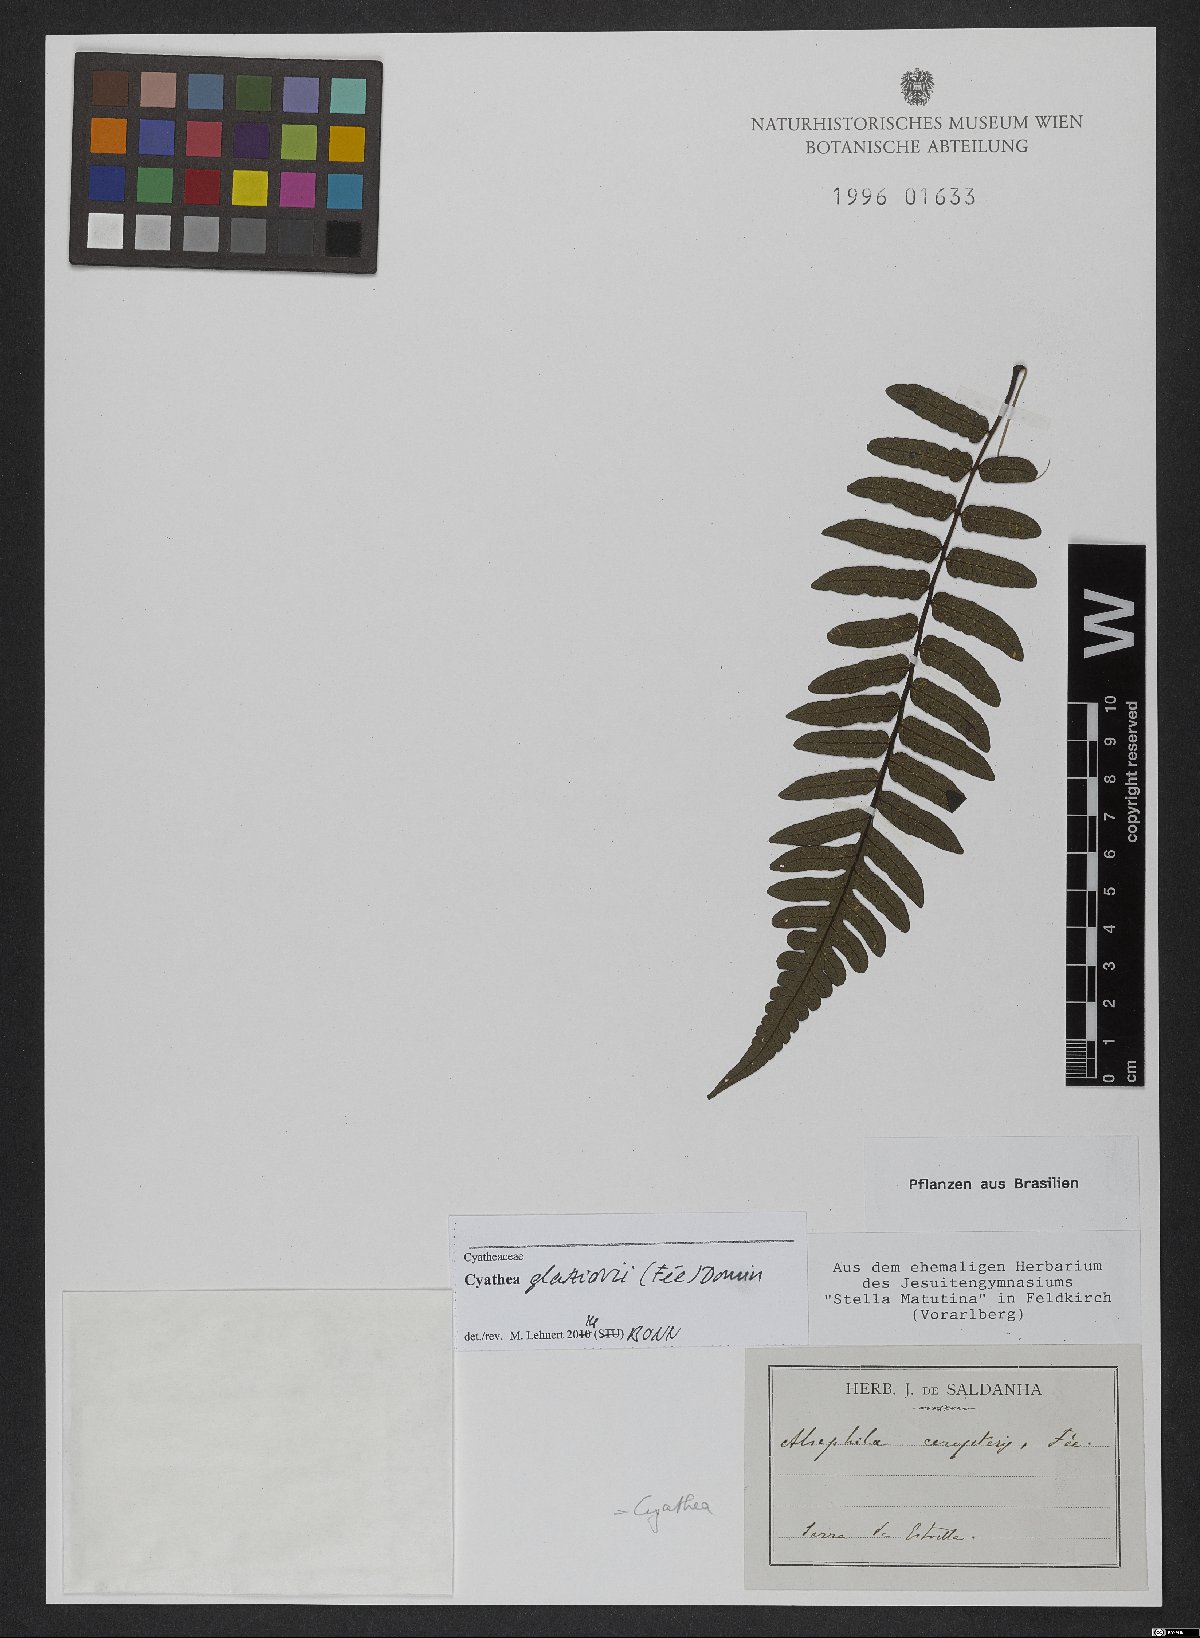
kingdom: Plantae
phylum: Tracheophyta
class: Polypodiopsida
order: Cyatheales
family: Cyatheaceae
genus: Cyathea
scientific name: Cyathea glaziovii
